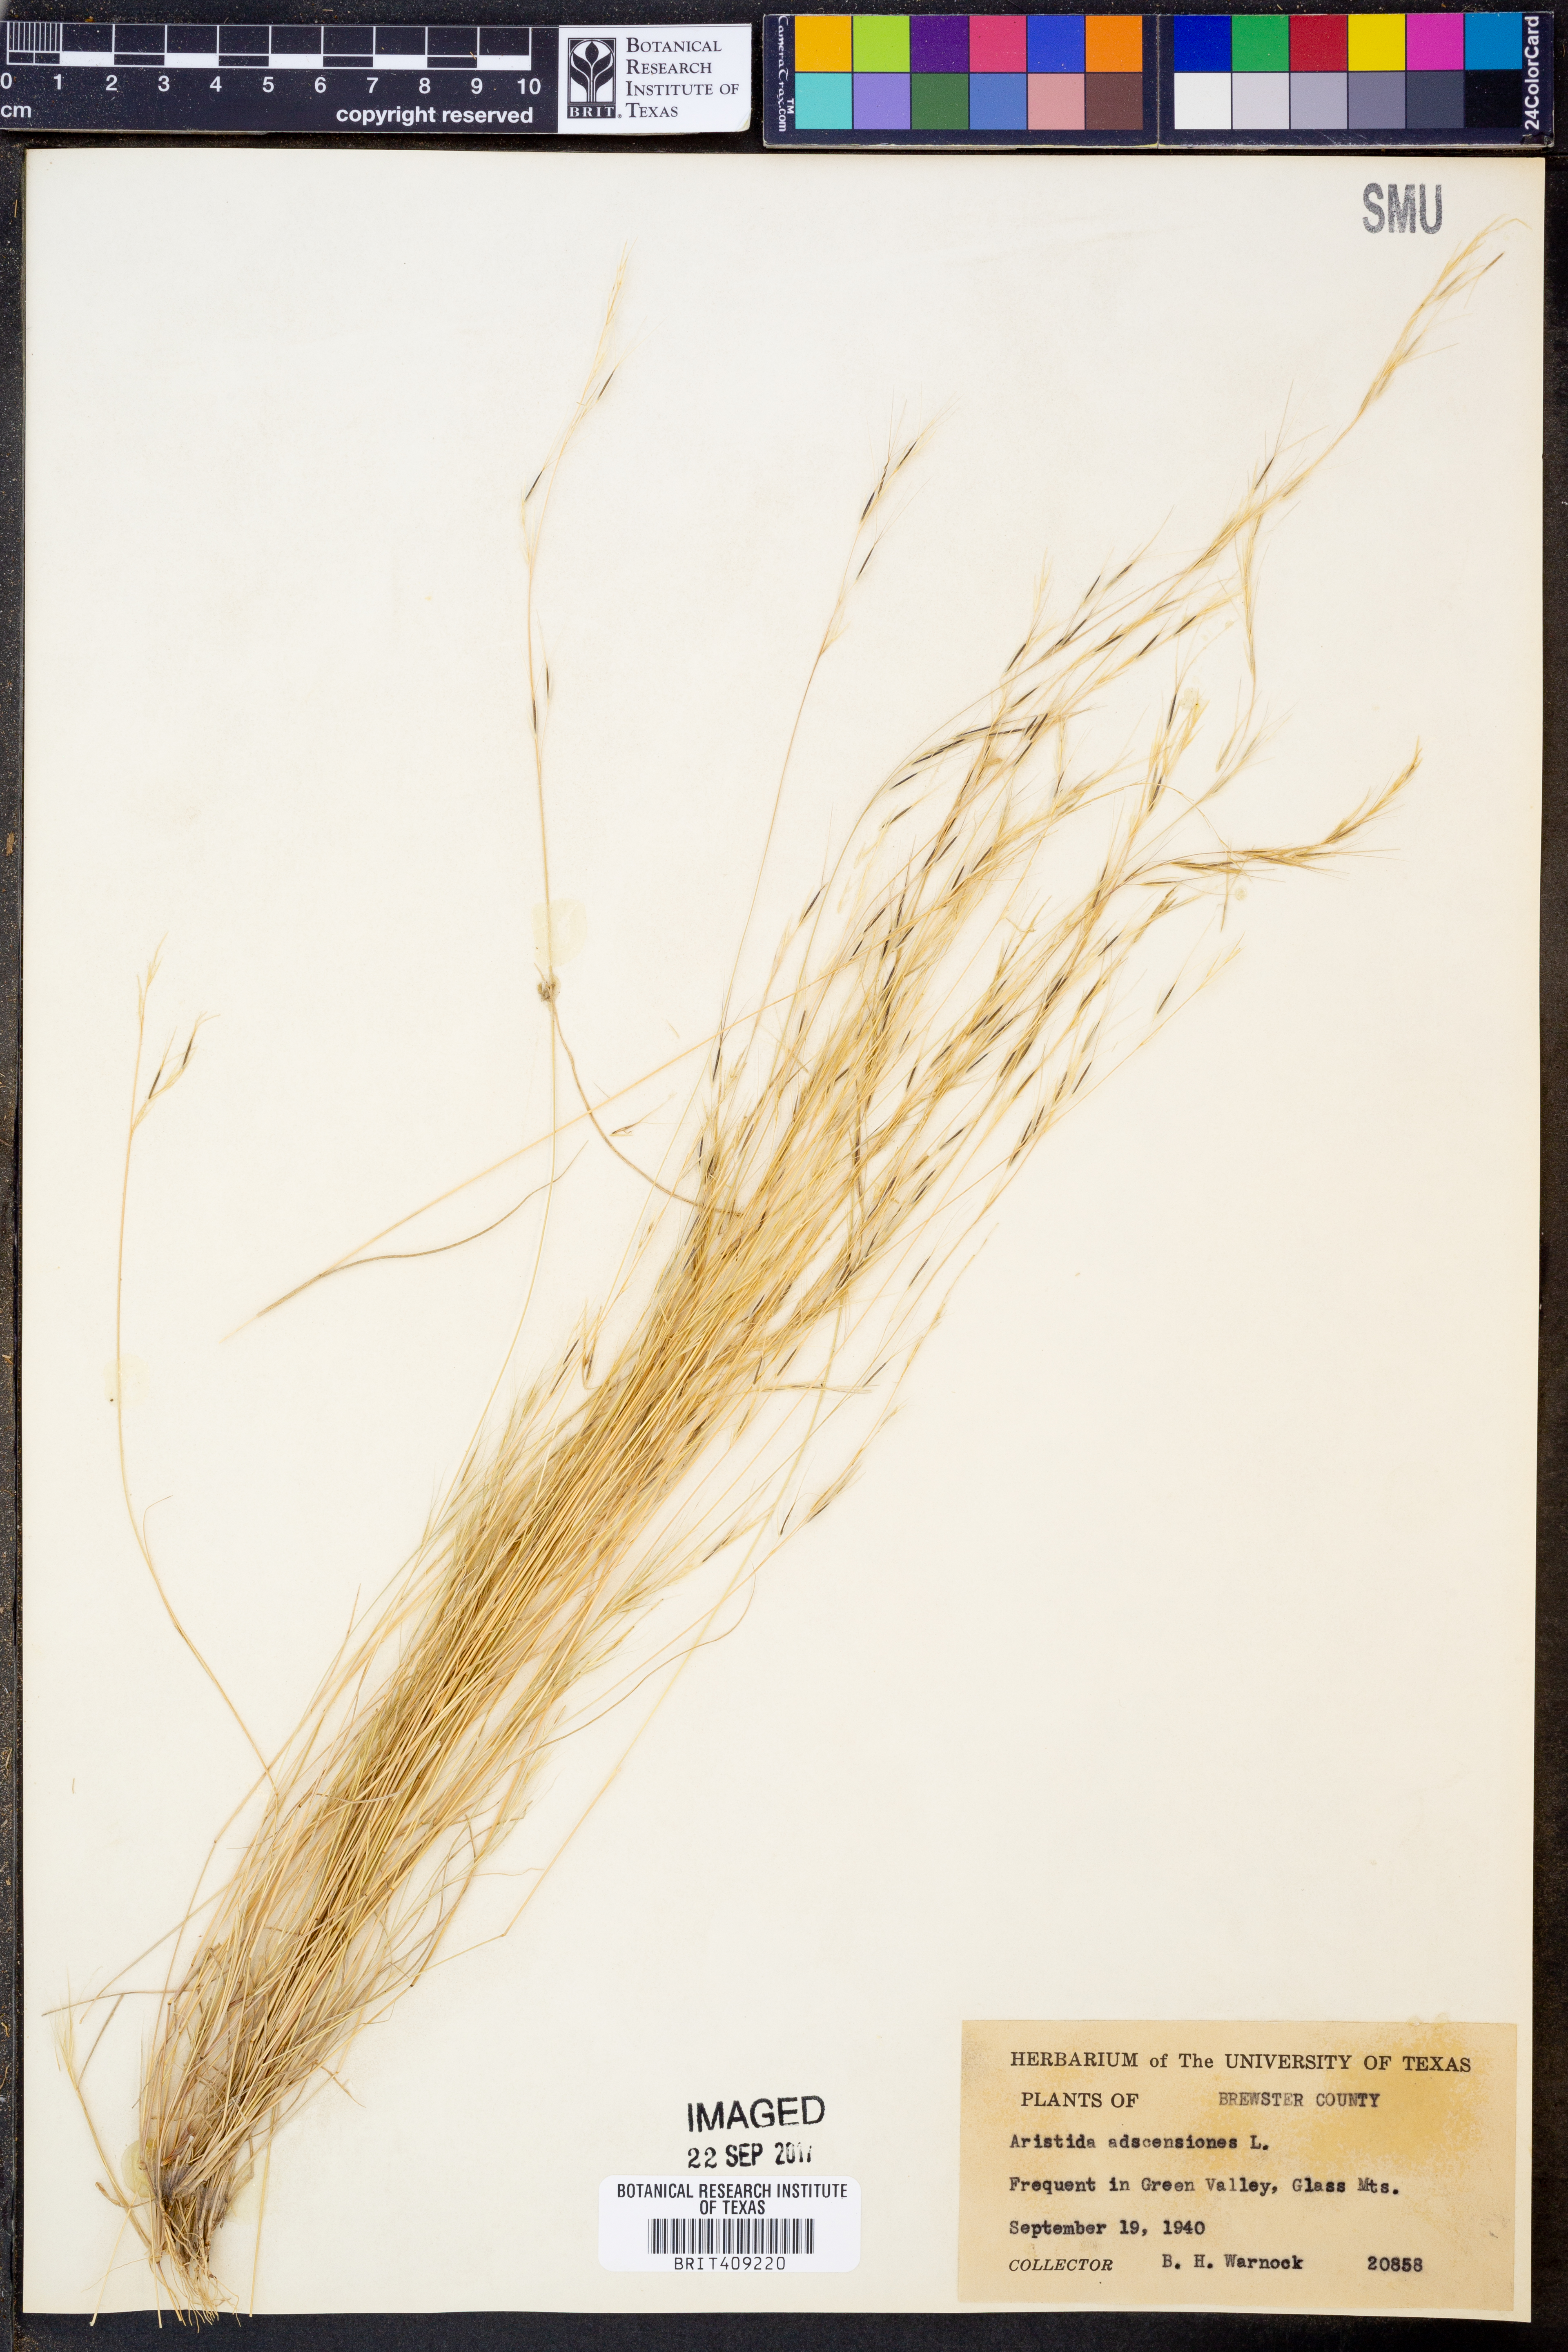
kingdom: Plantae
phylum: Tracheophyta
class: Liliopsida
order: Poales
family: Poaceae
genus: Aristida
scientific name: Aristida adscensionis
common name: Sixweeks threeawn
